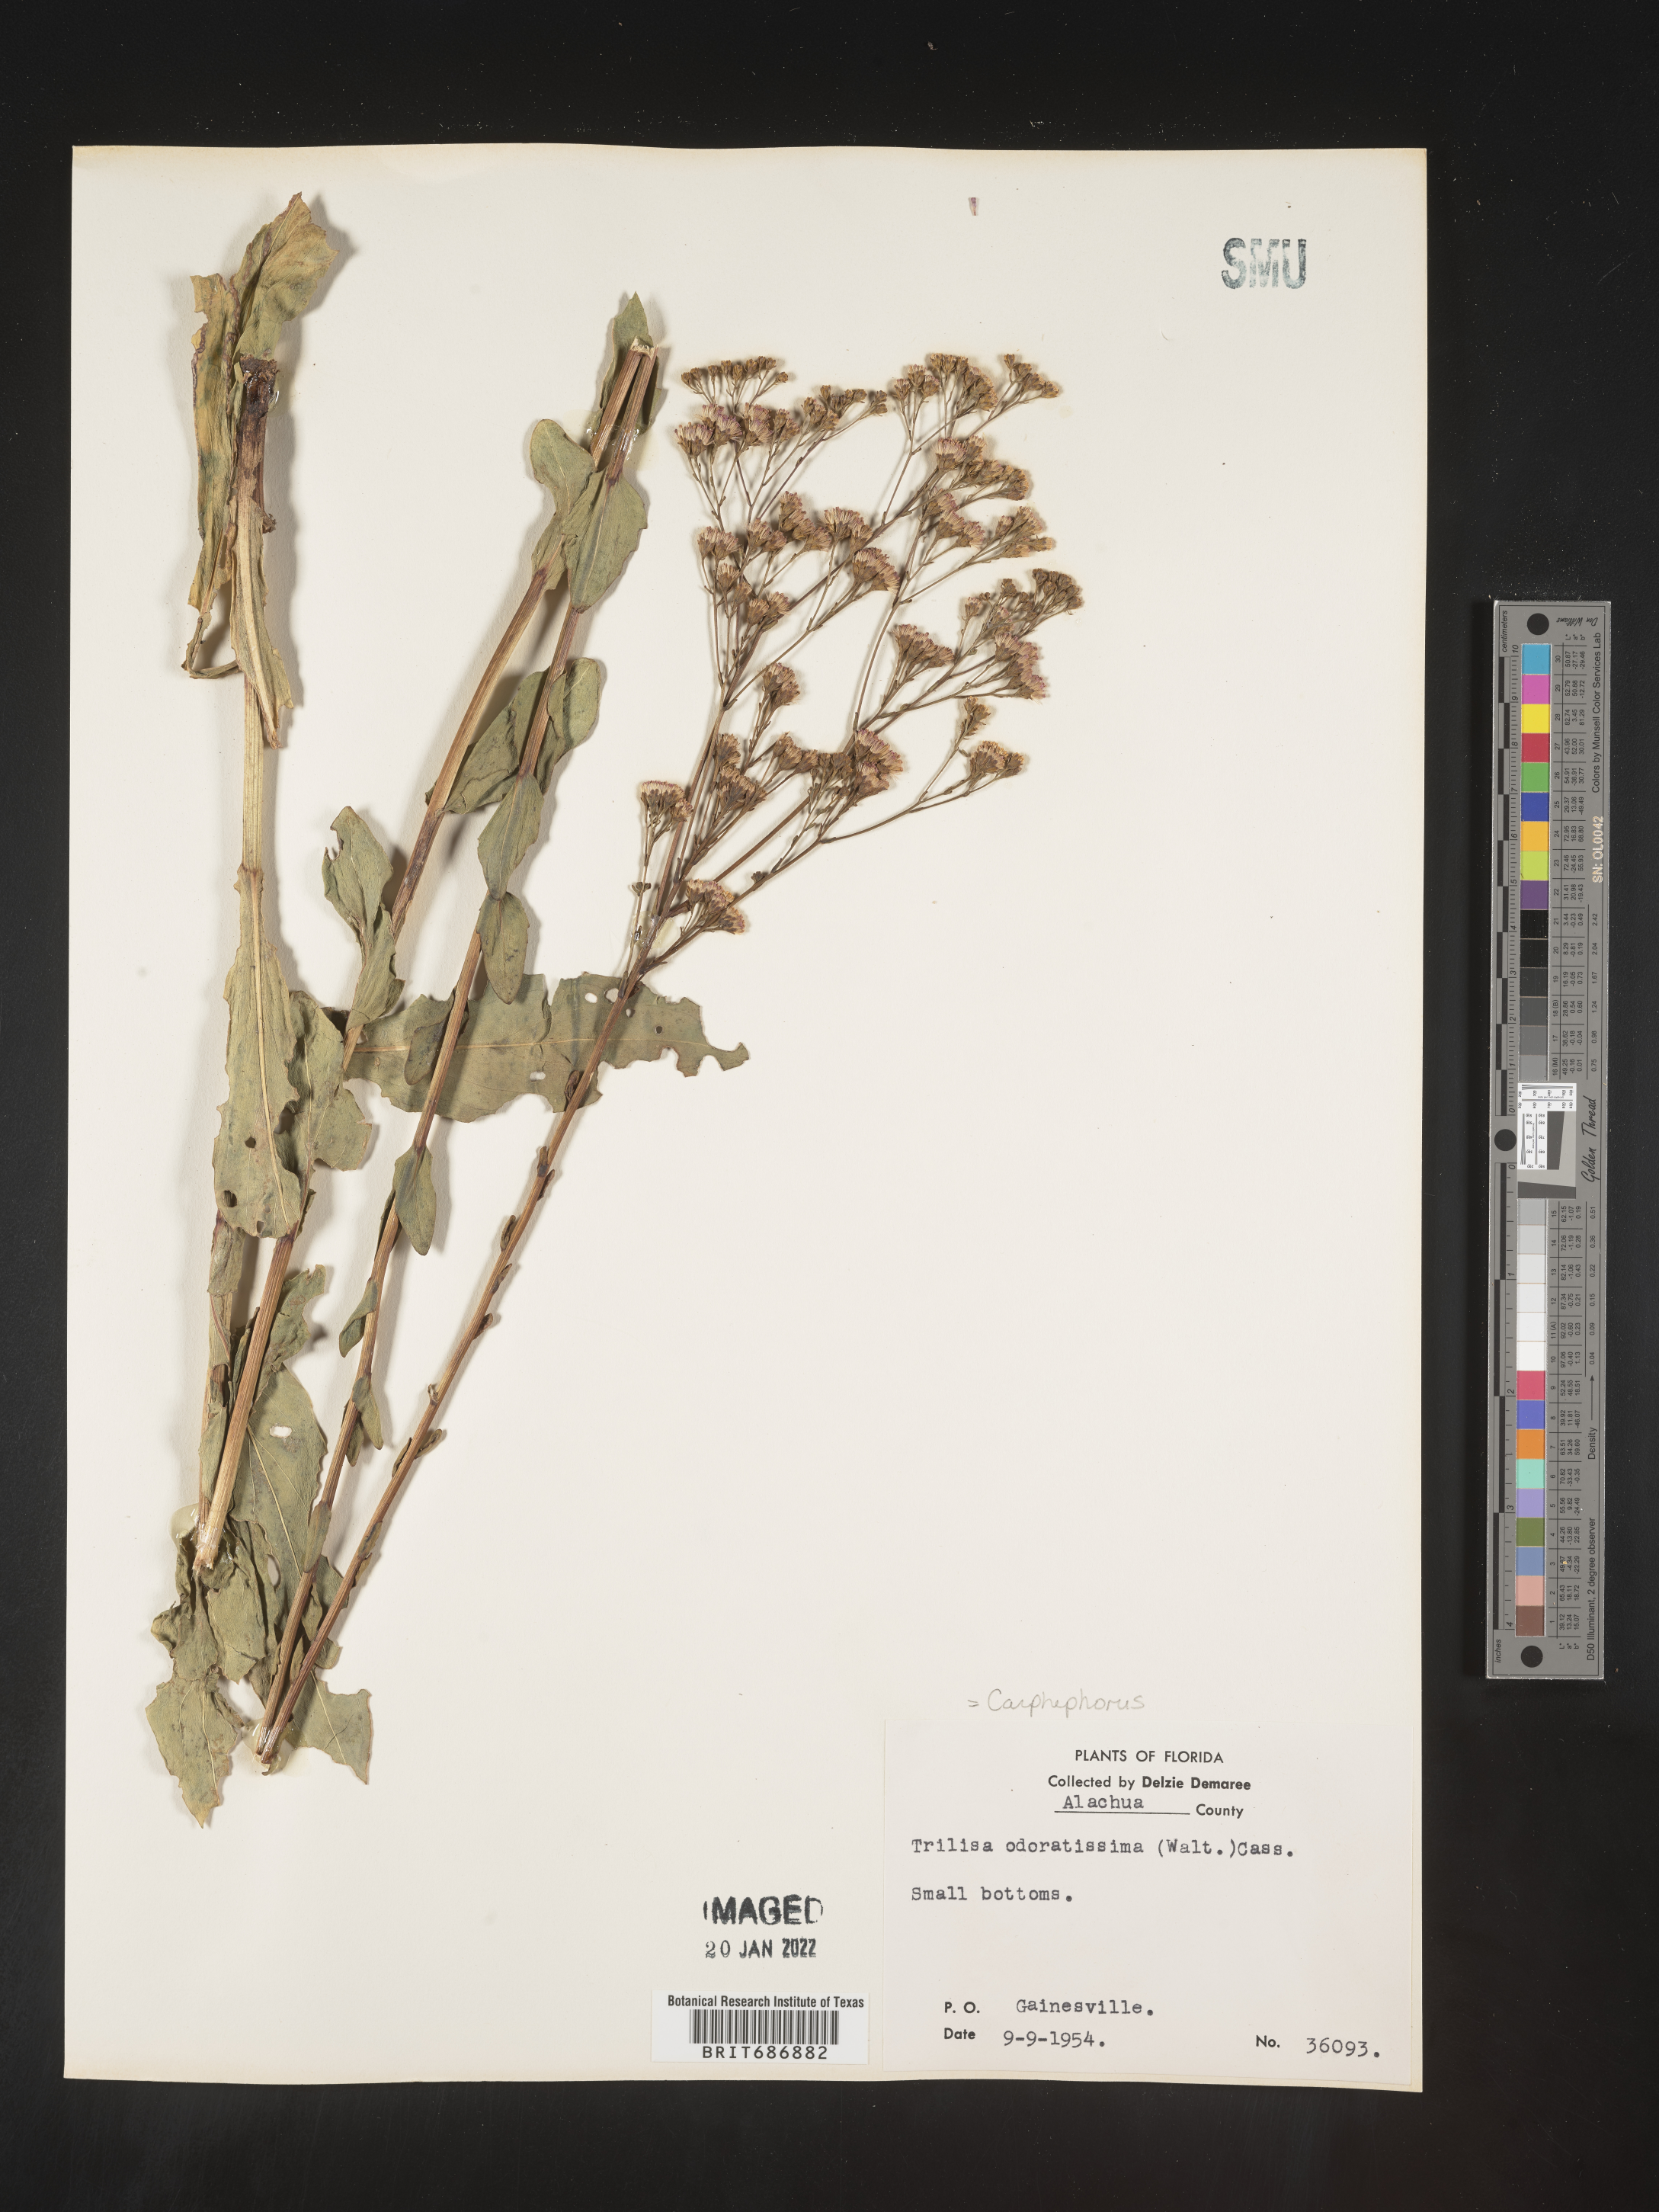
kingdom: Plantae
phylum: Tracheophyta
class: Magnoliopsida
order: Asterales
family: Asteraceae
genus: Carphephorus
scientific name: Carphephorus odoratissimus
